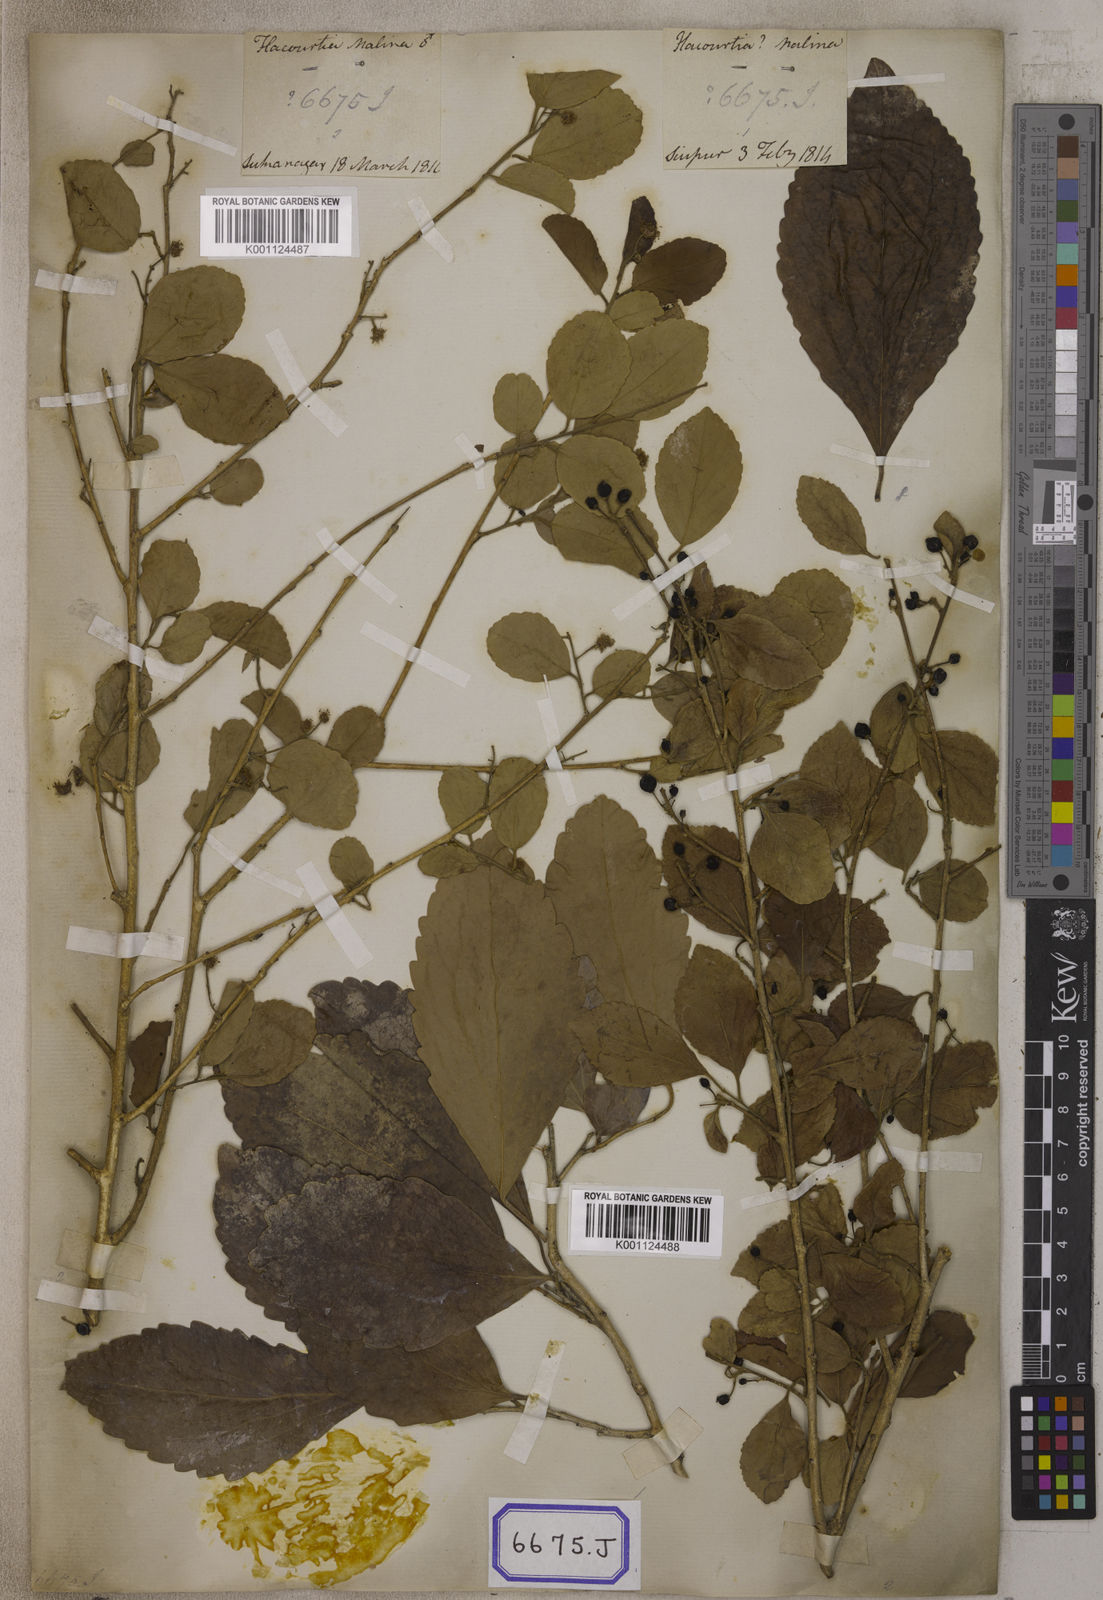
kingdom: Plantae
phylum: Tracheophyta
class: Magnoliopsida
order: Malpighiales
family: Salicaceae
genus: Flacourtia
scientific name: Flacourtia
